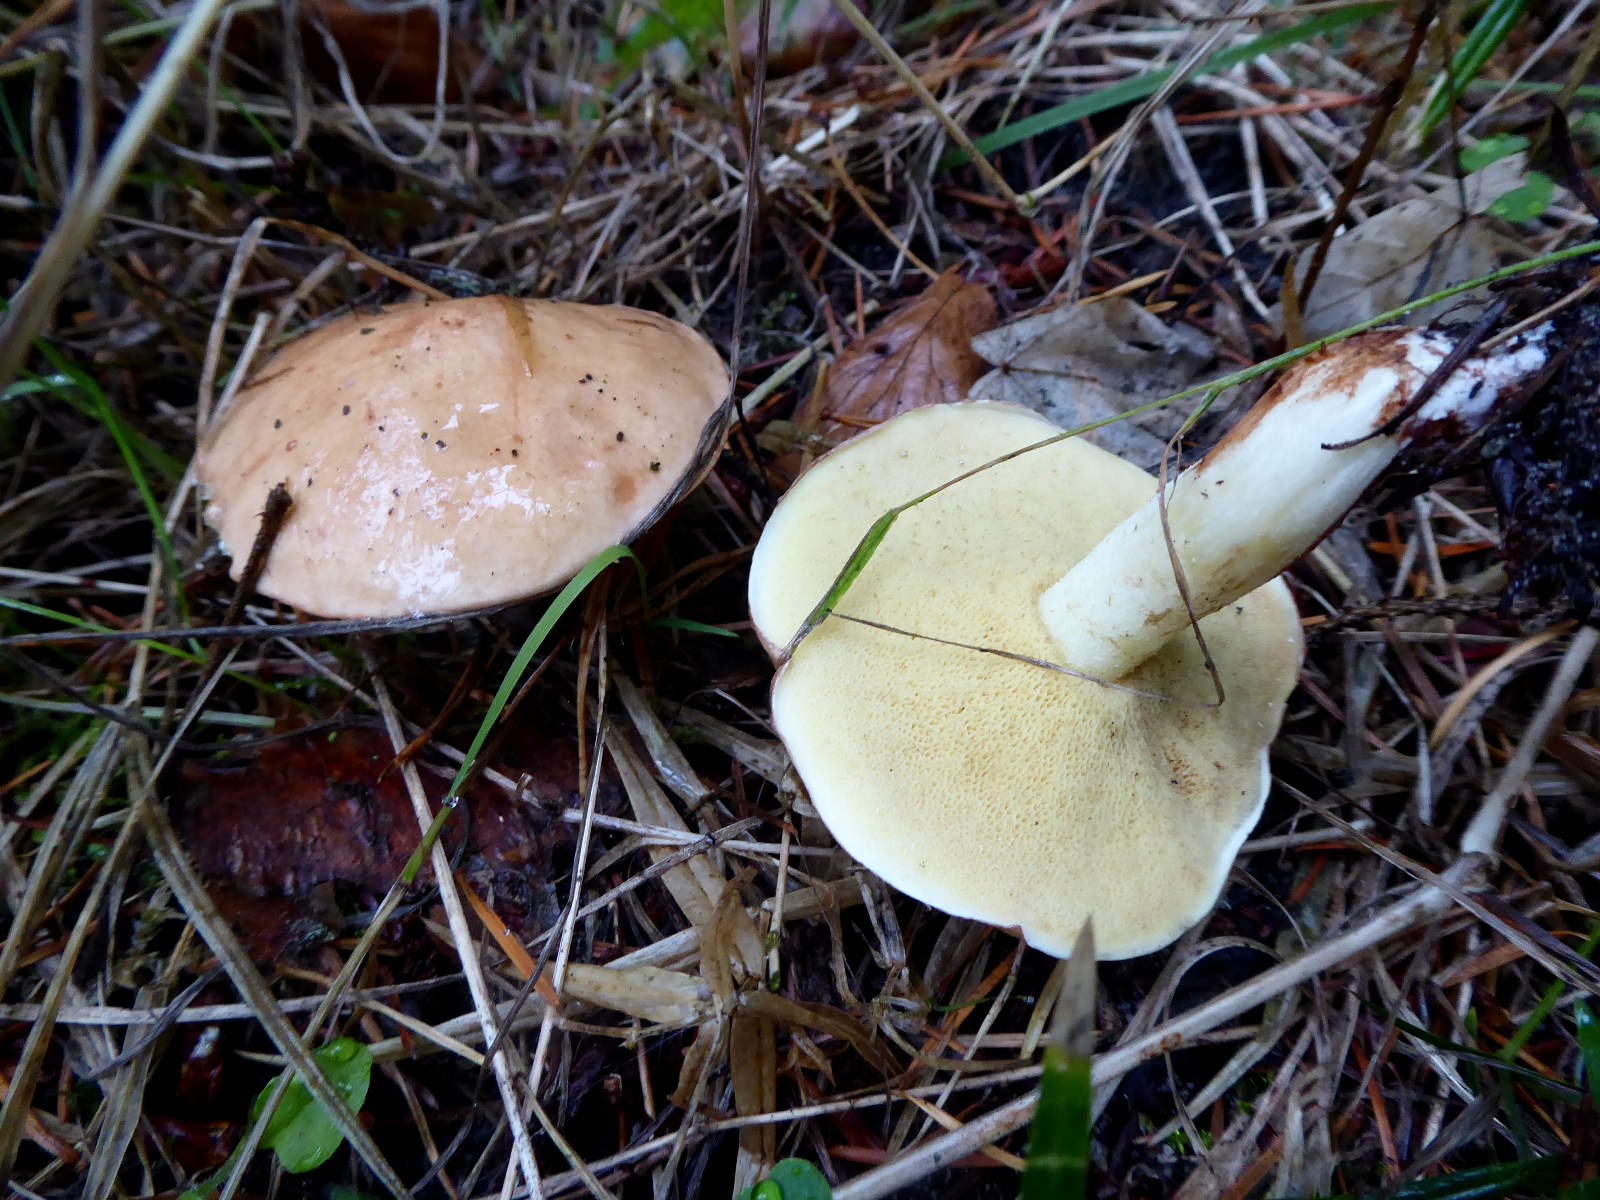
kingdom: Fungi
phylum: Basidiomycota
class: Agaricomycetes
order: Boletales
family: Suillaceae
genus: Suillus
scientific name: Suillus granulatus
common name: kornet slimrørhat
